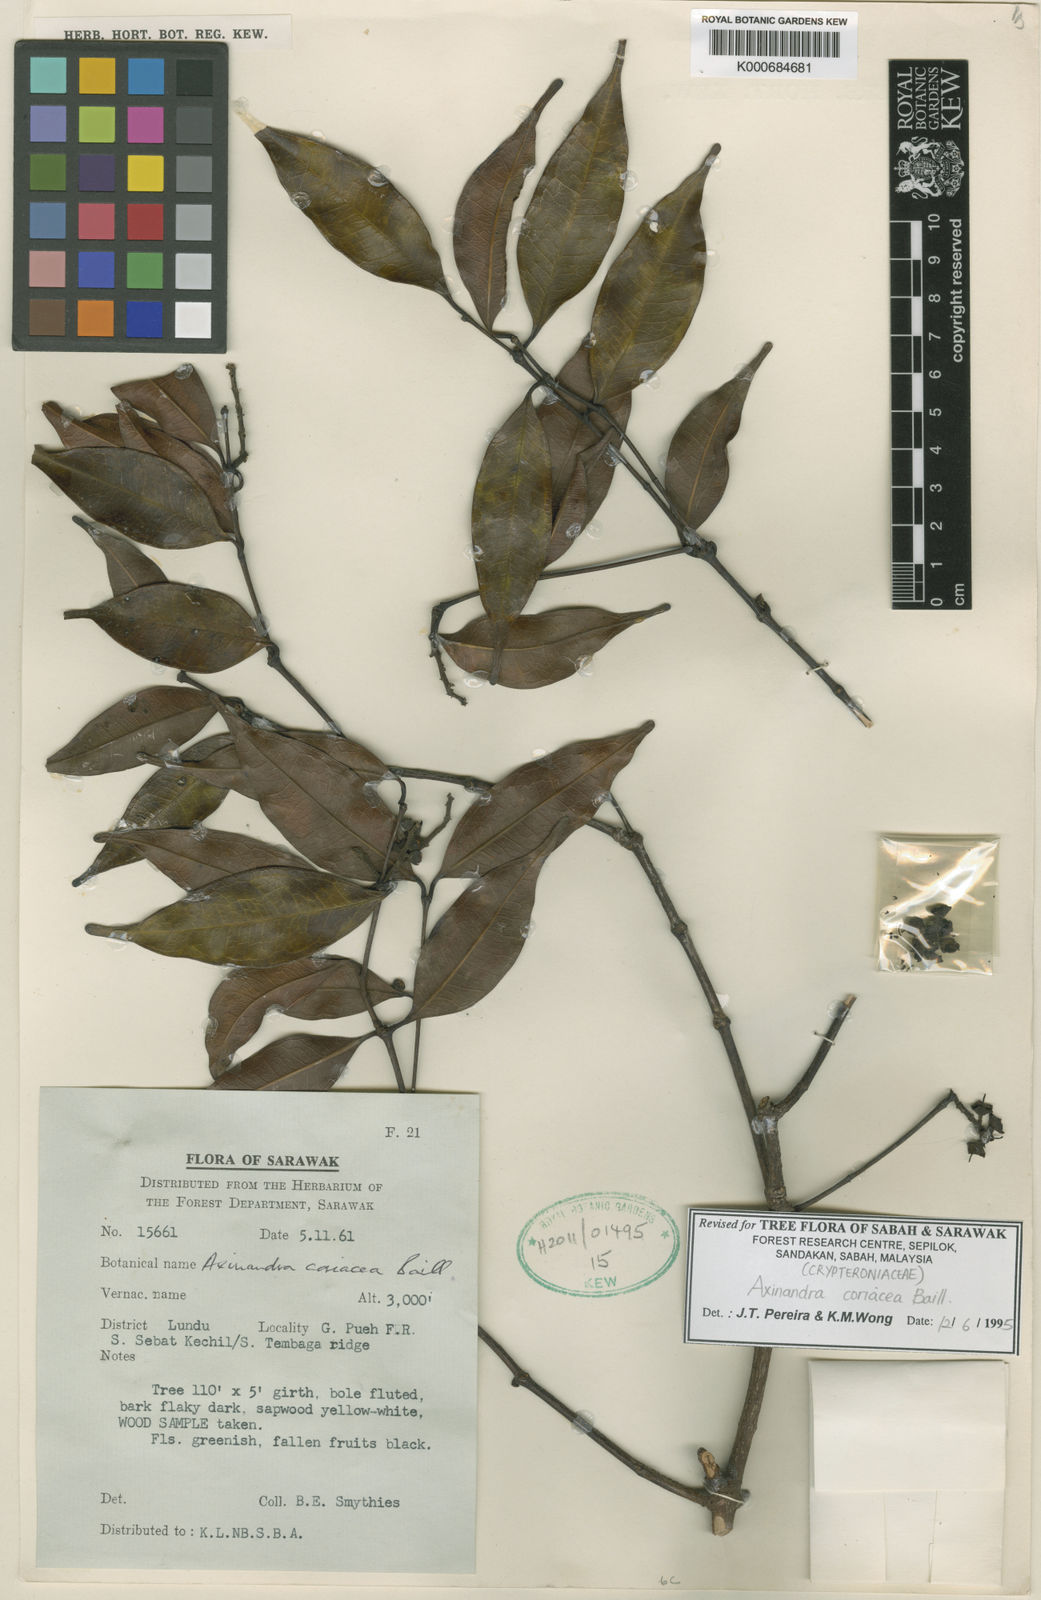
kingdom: Plantae
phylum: Tracheophyta
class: Magnoliopsida
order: Myrtales
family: Crypteroniaceae
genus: Axinandra
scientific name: Axinandra coriacea
